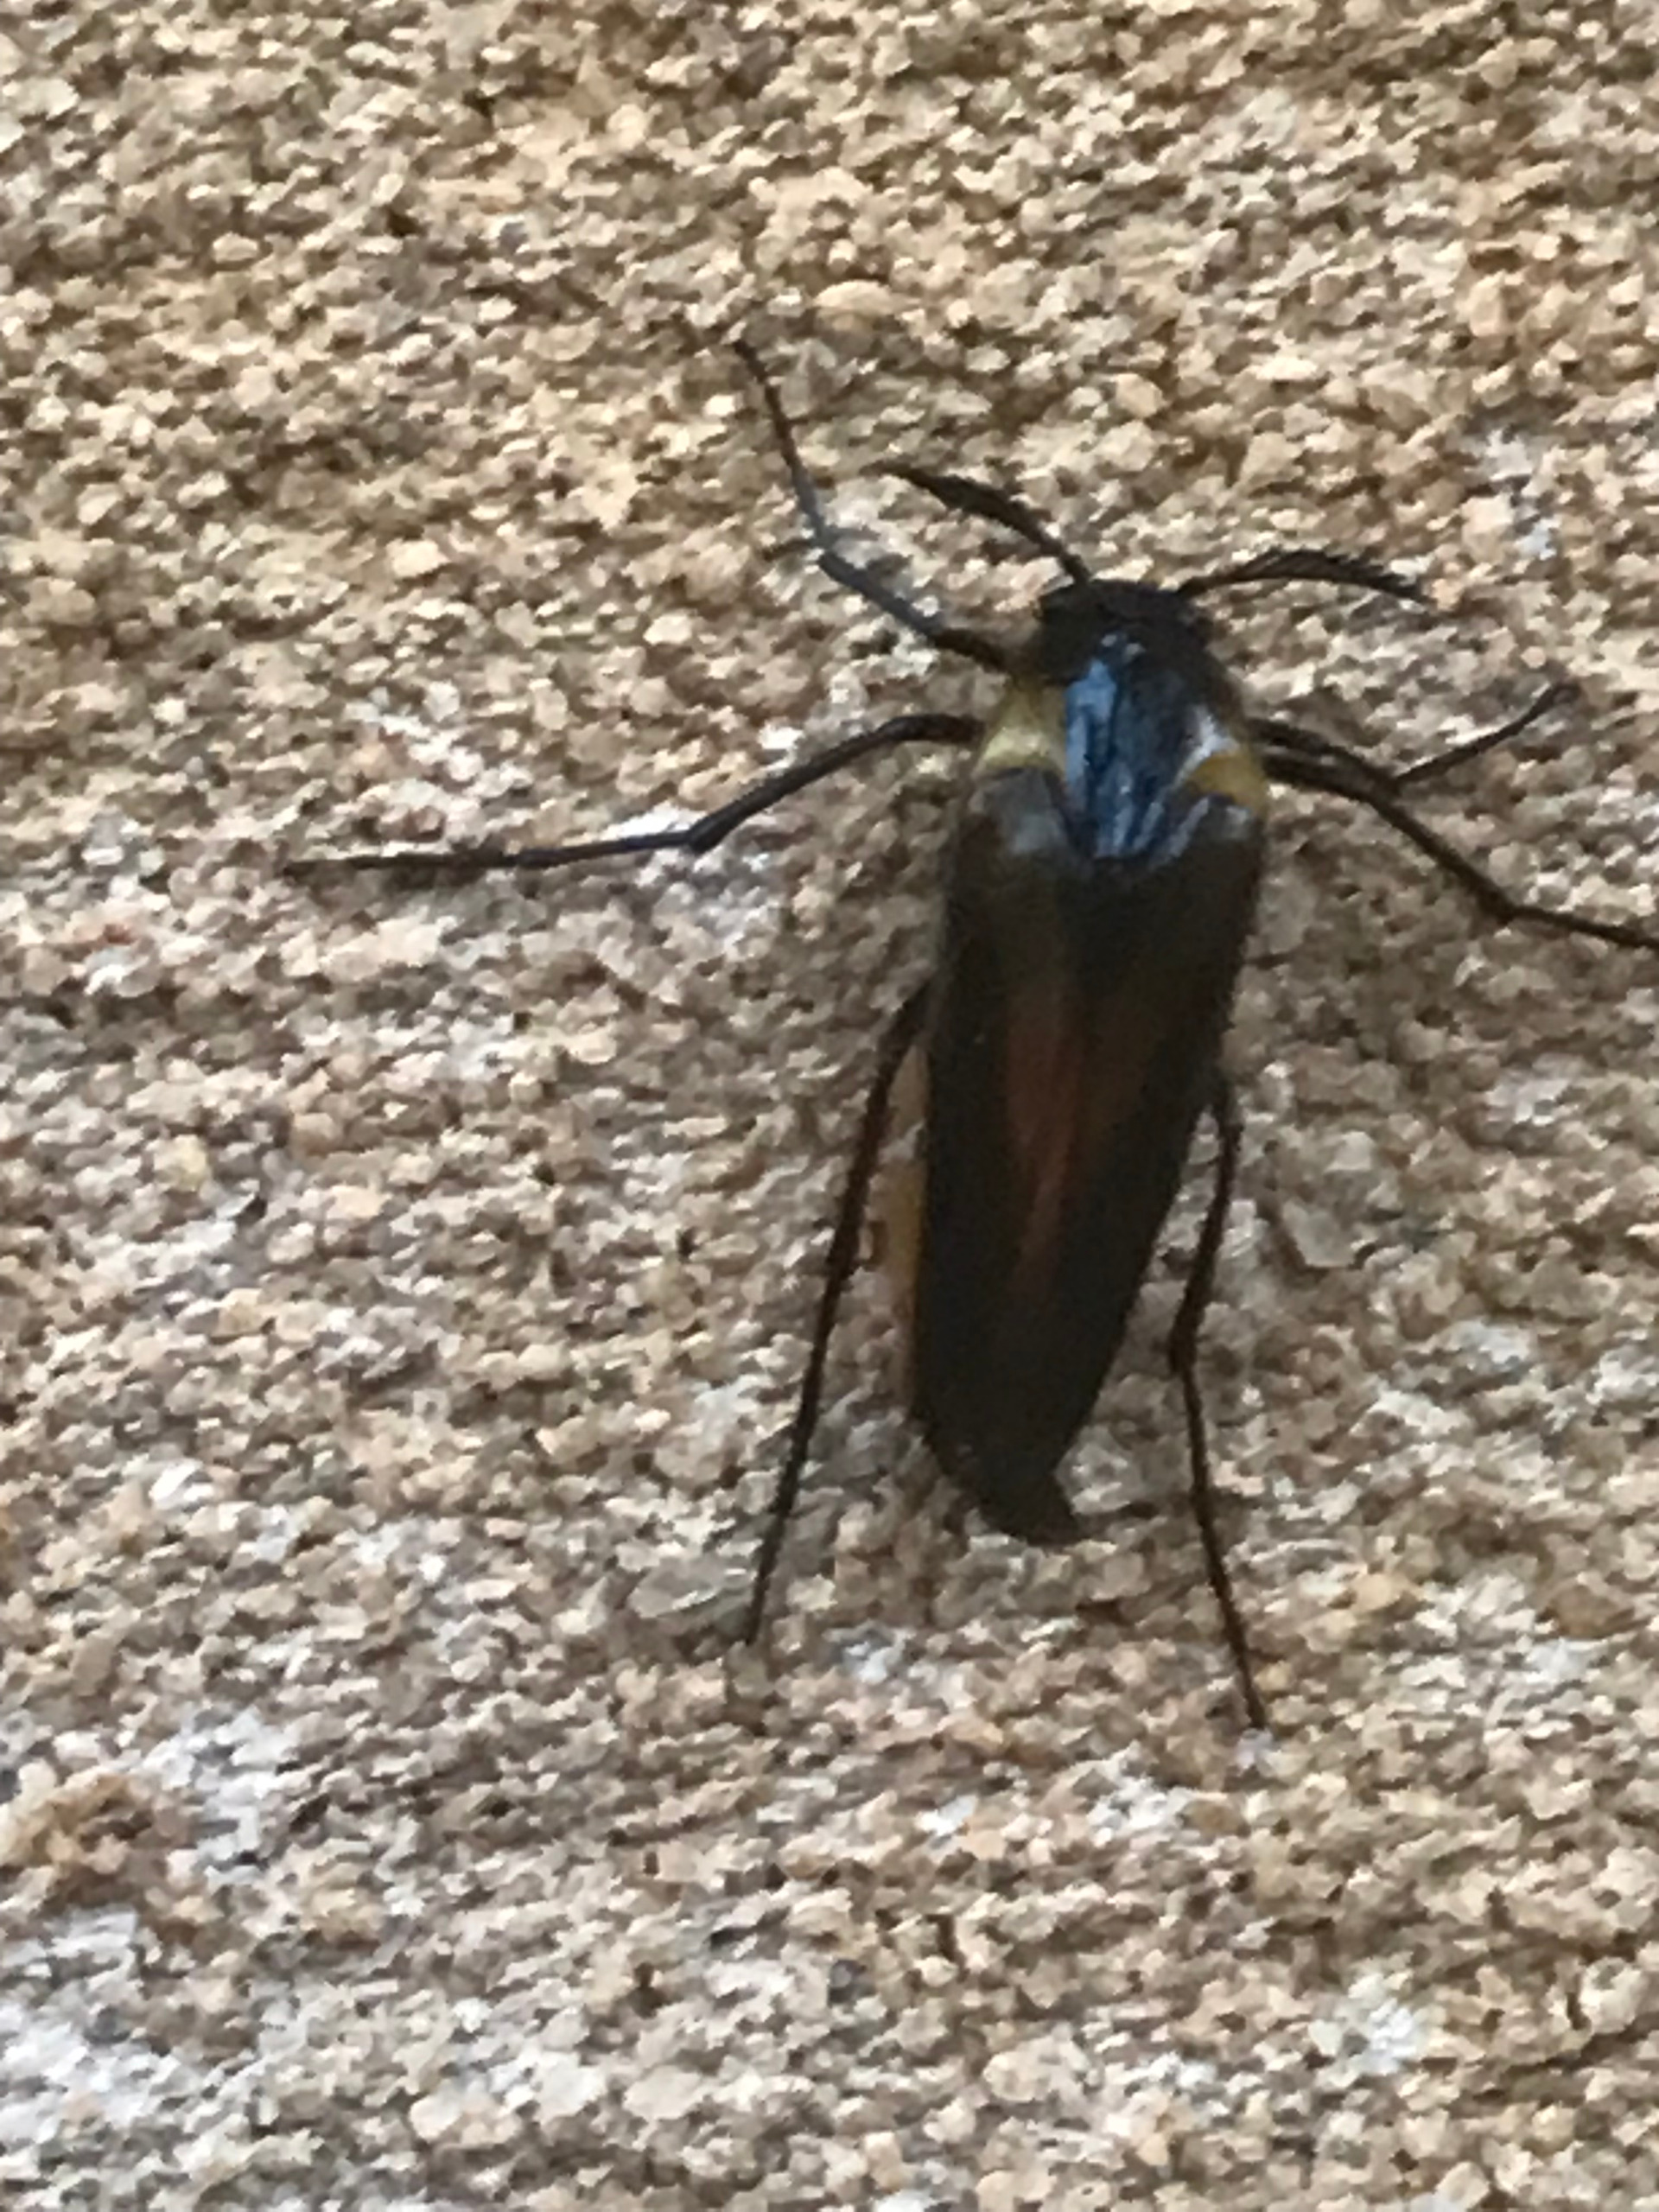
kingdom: Animalia
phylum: Arthropoda
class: Insecta
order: Coleoptera
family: Ripiphoridae
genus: Metoecus
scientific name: Metoecus paradoxus
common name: Hvepsesnyltebille
